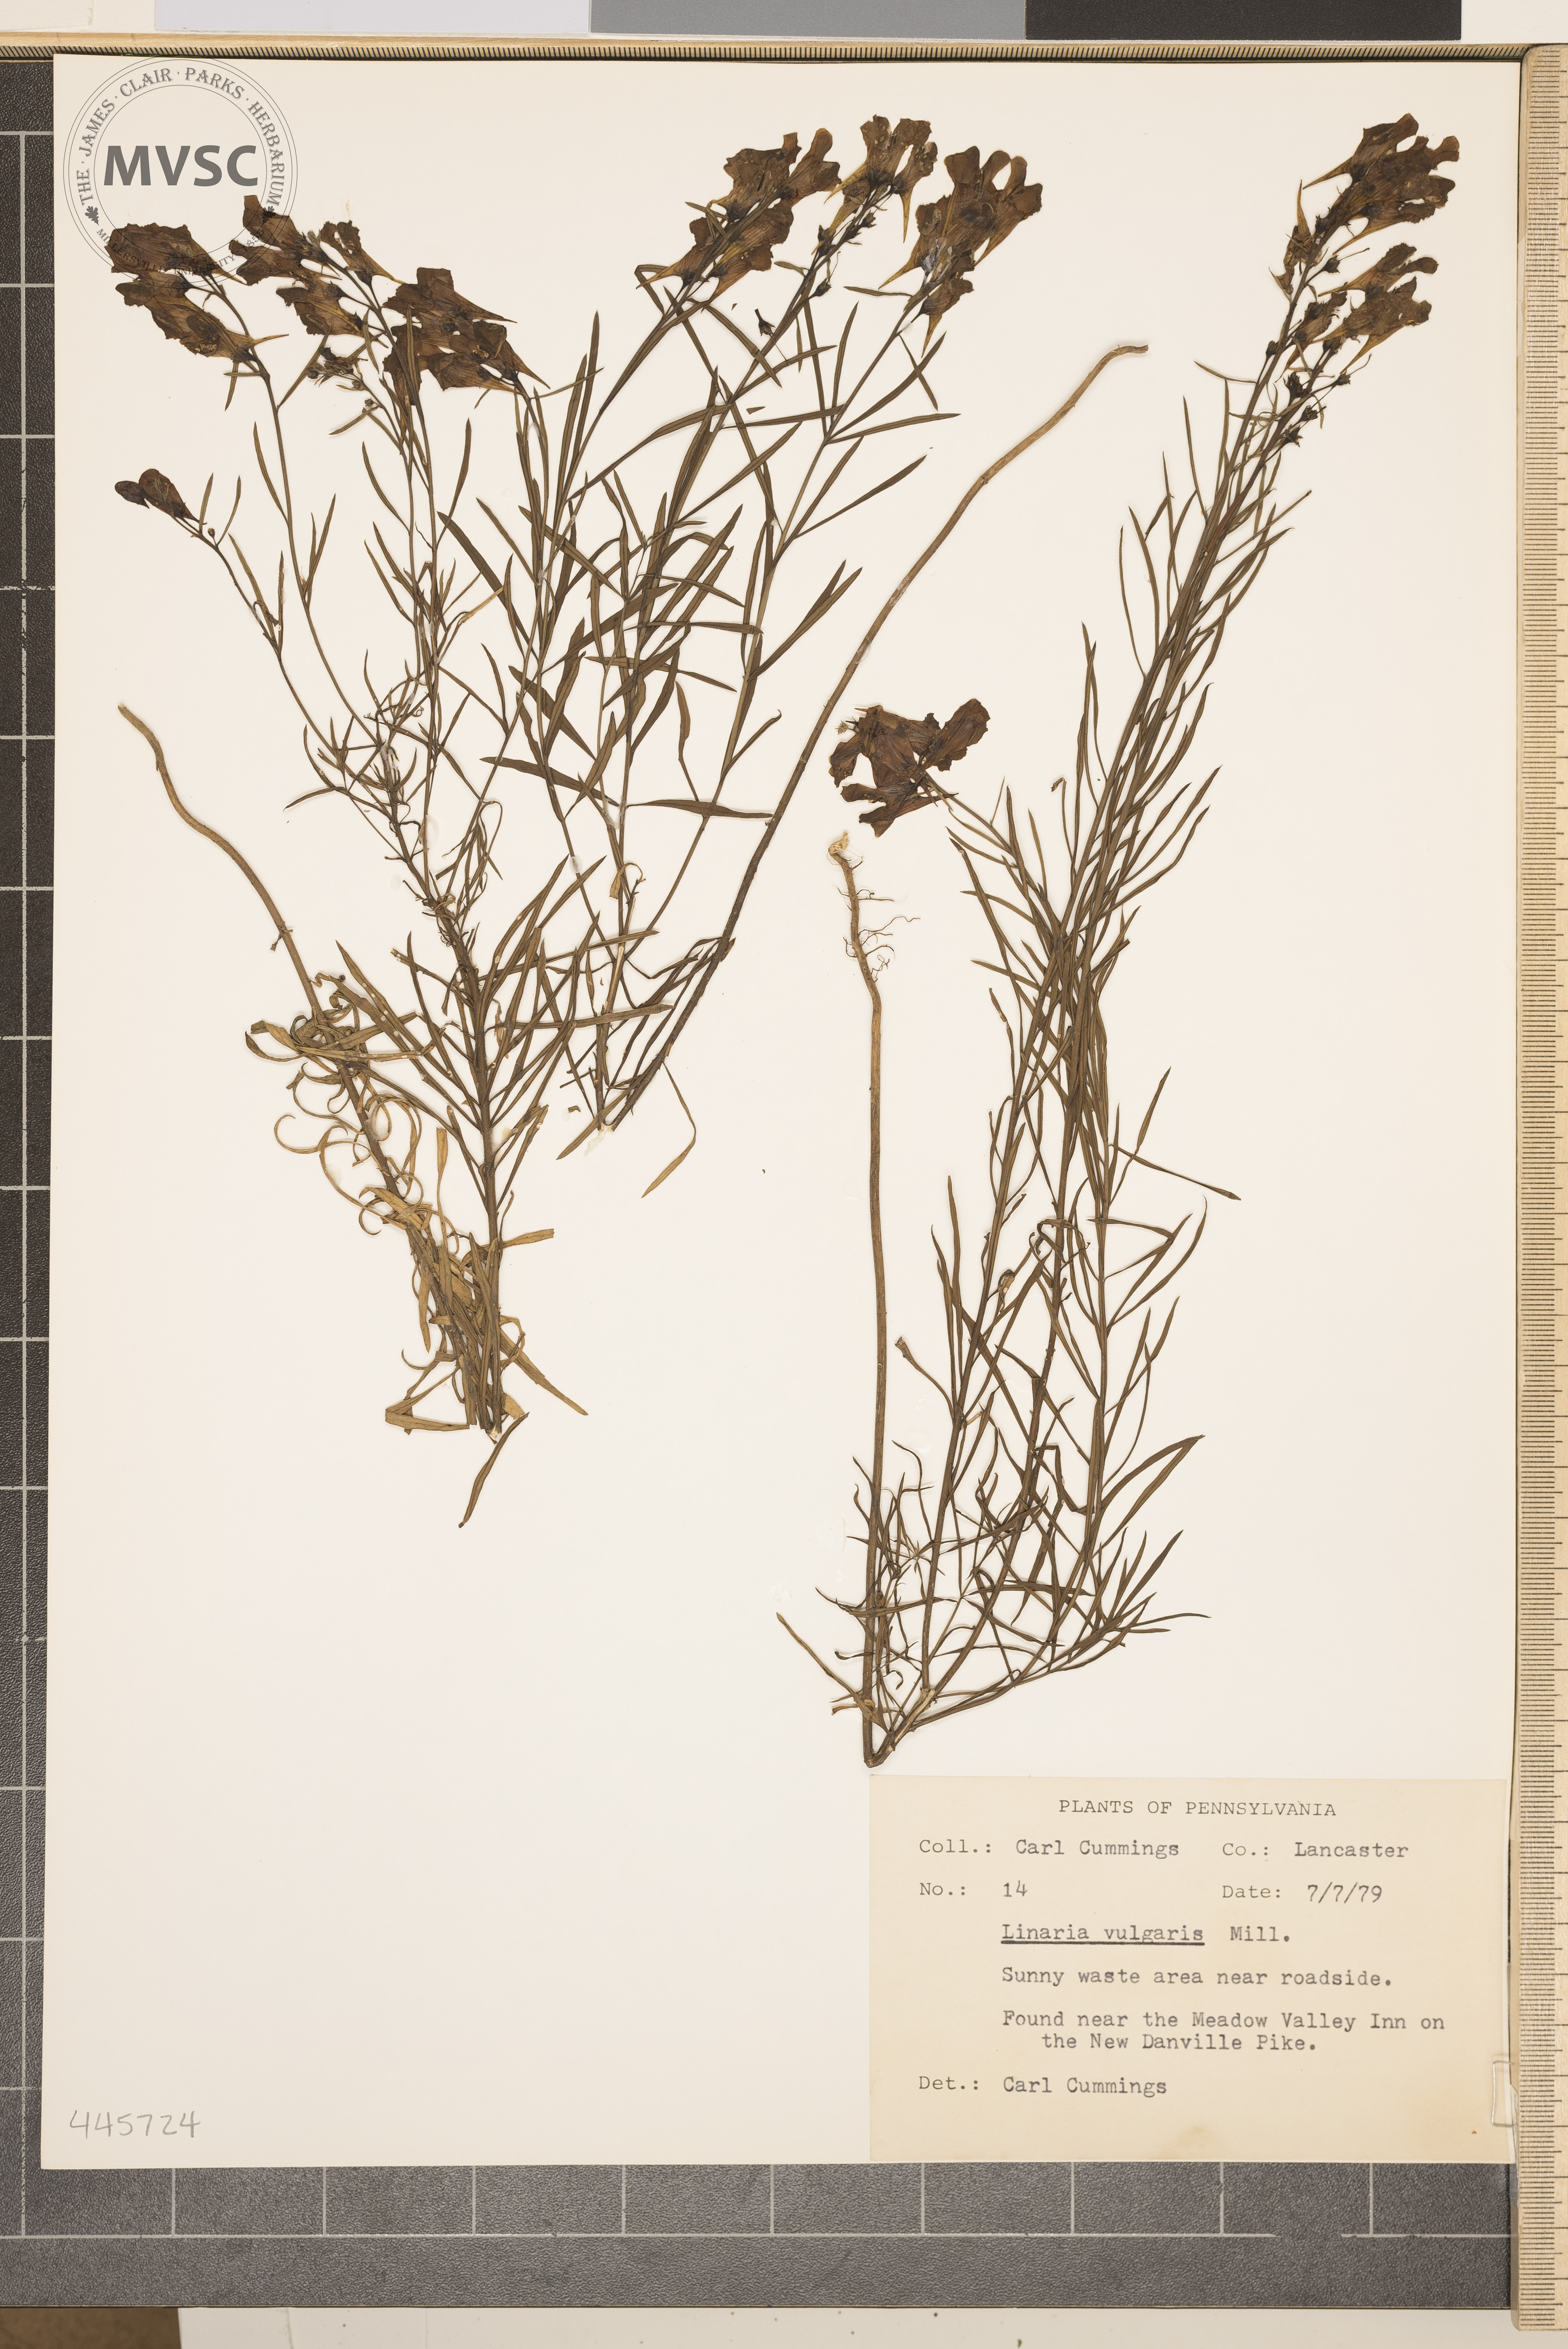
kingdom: Plantae
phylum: Tracheophyta
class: Magnoliopsida
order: Lamiales
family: Plantaginaceae
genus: Linaria
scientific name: Linaria vulgaris
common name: Butter and eggs
